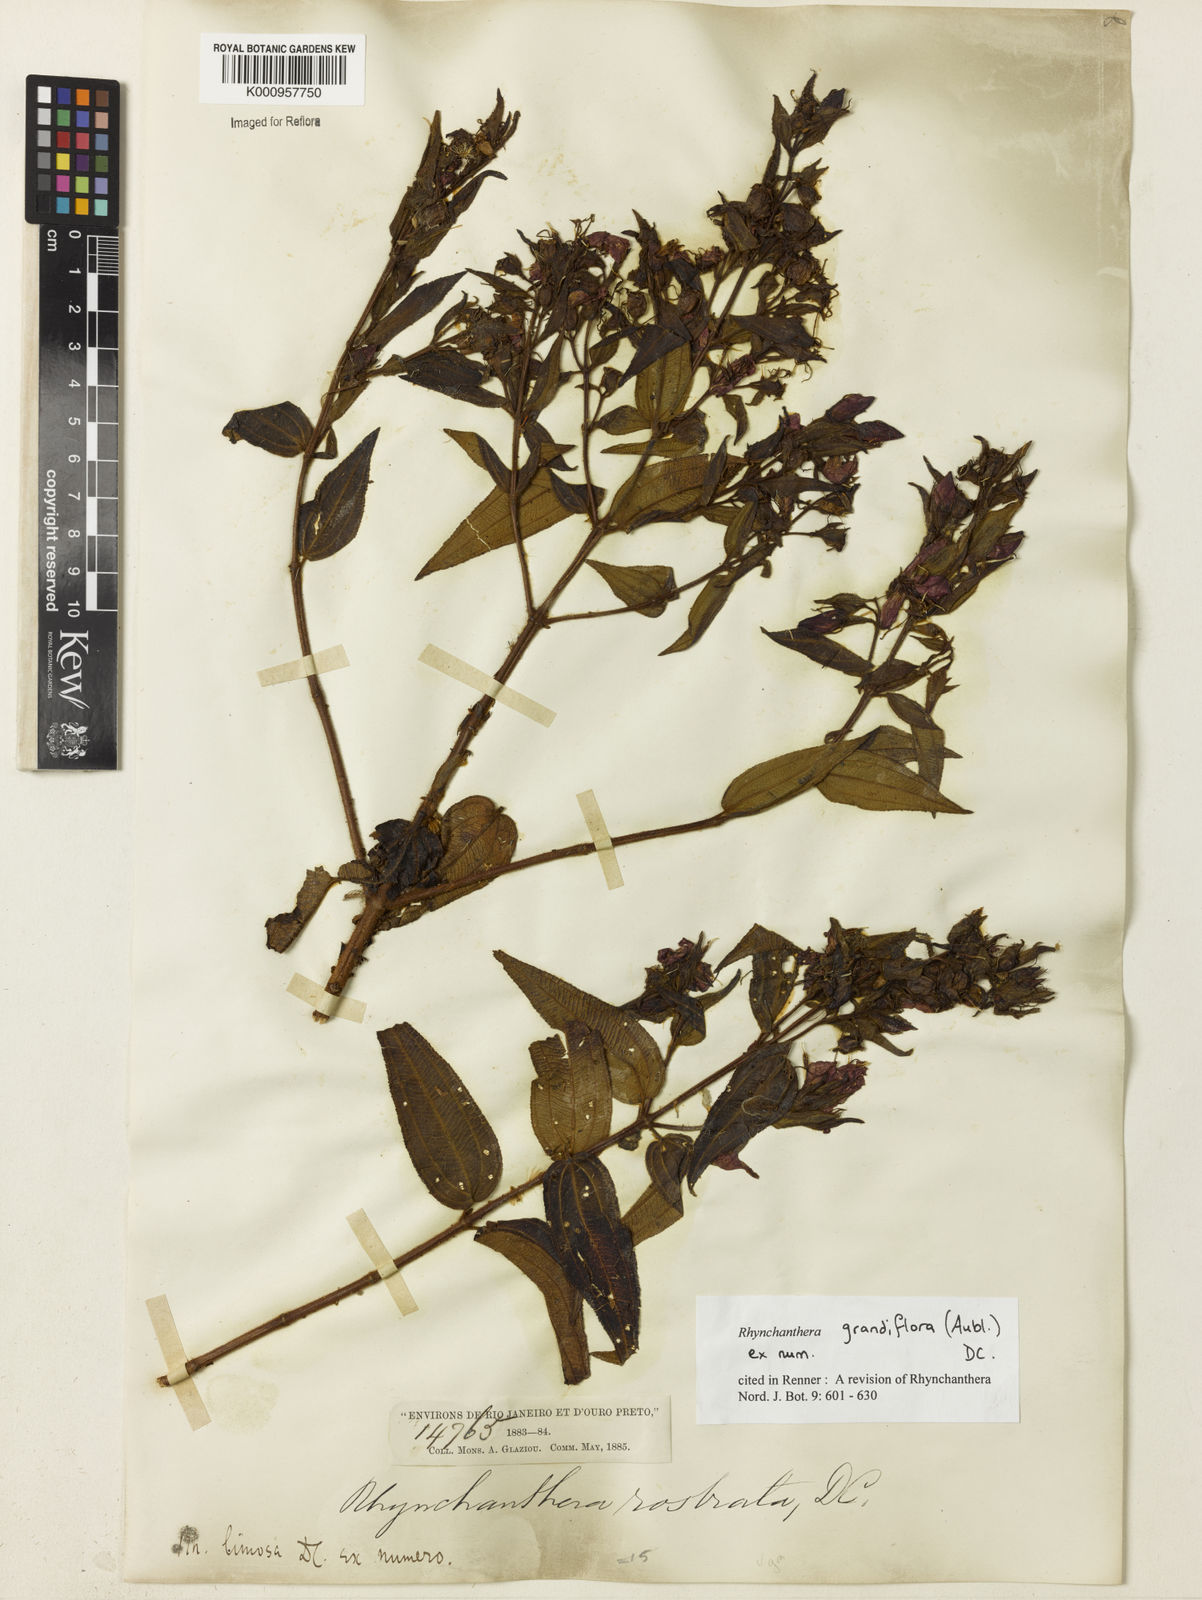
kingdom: Plantae
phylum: Tracheophyta
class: Magnoliopsida
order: Myrtales
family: Melastomataceae
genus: Rhynchanthera
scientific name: Rhynchanthera grandiflora
